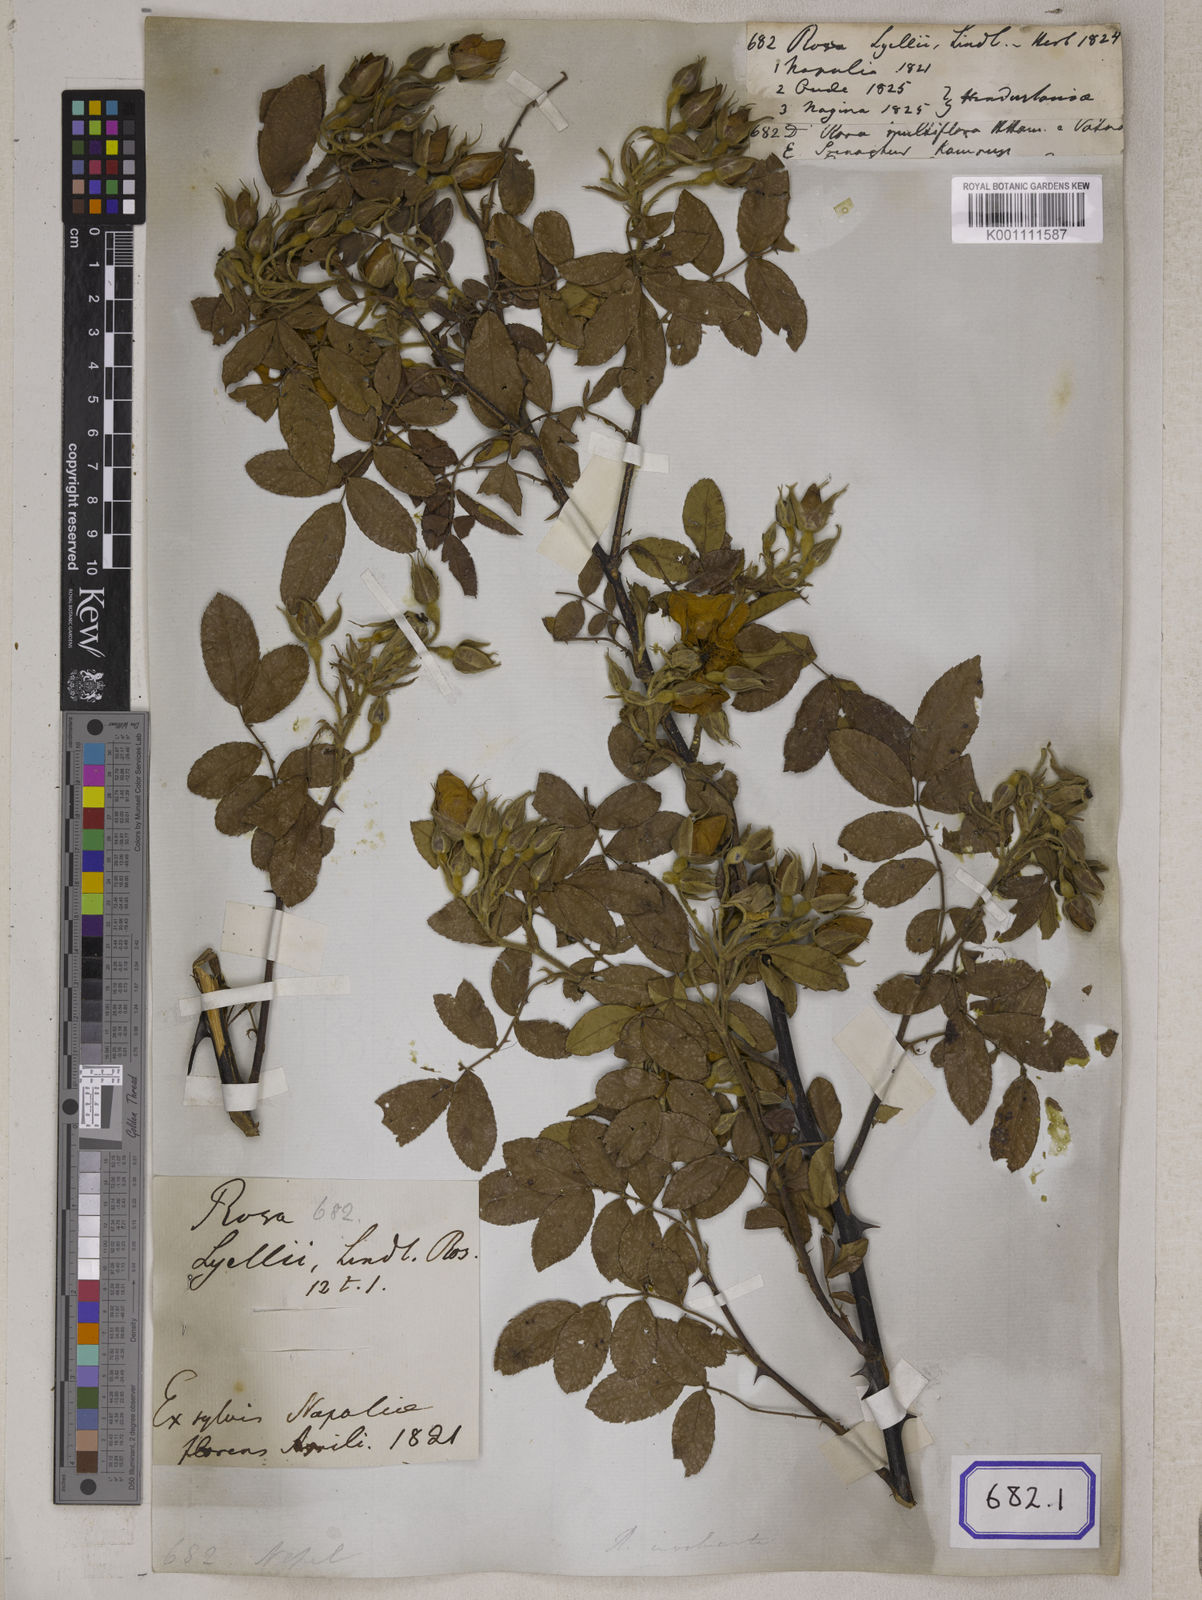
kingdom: Plantae
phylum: Tracheophyta
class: Magnoliopsida
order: Rosales
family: Rosaceae
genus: Rosa
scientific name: Rosa clinophylla
